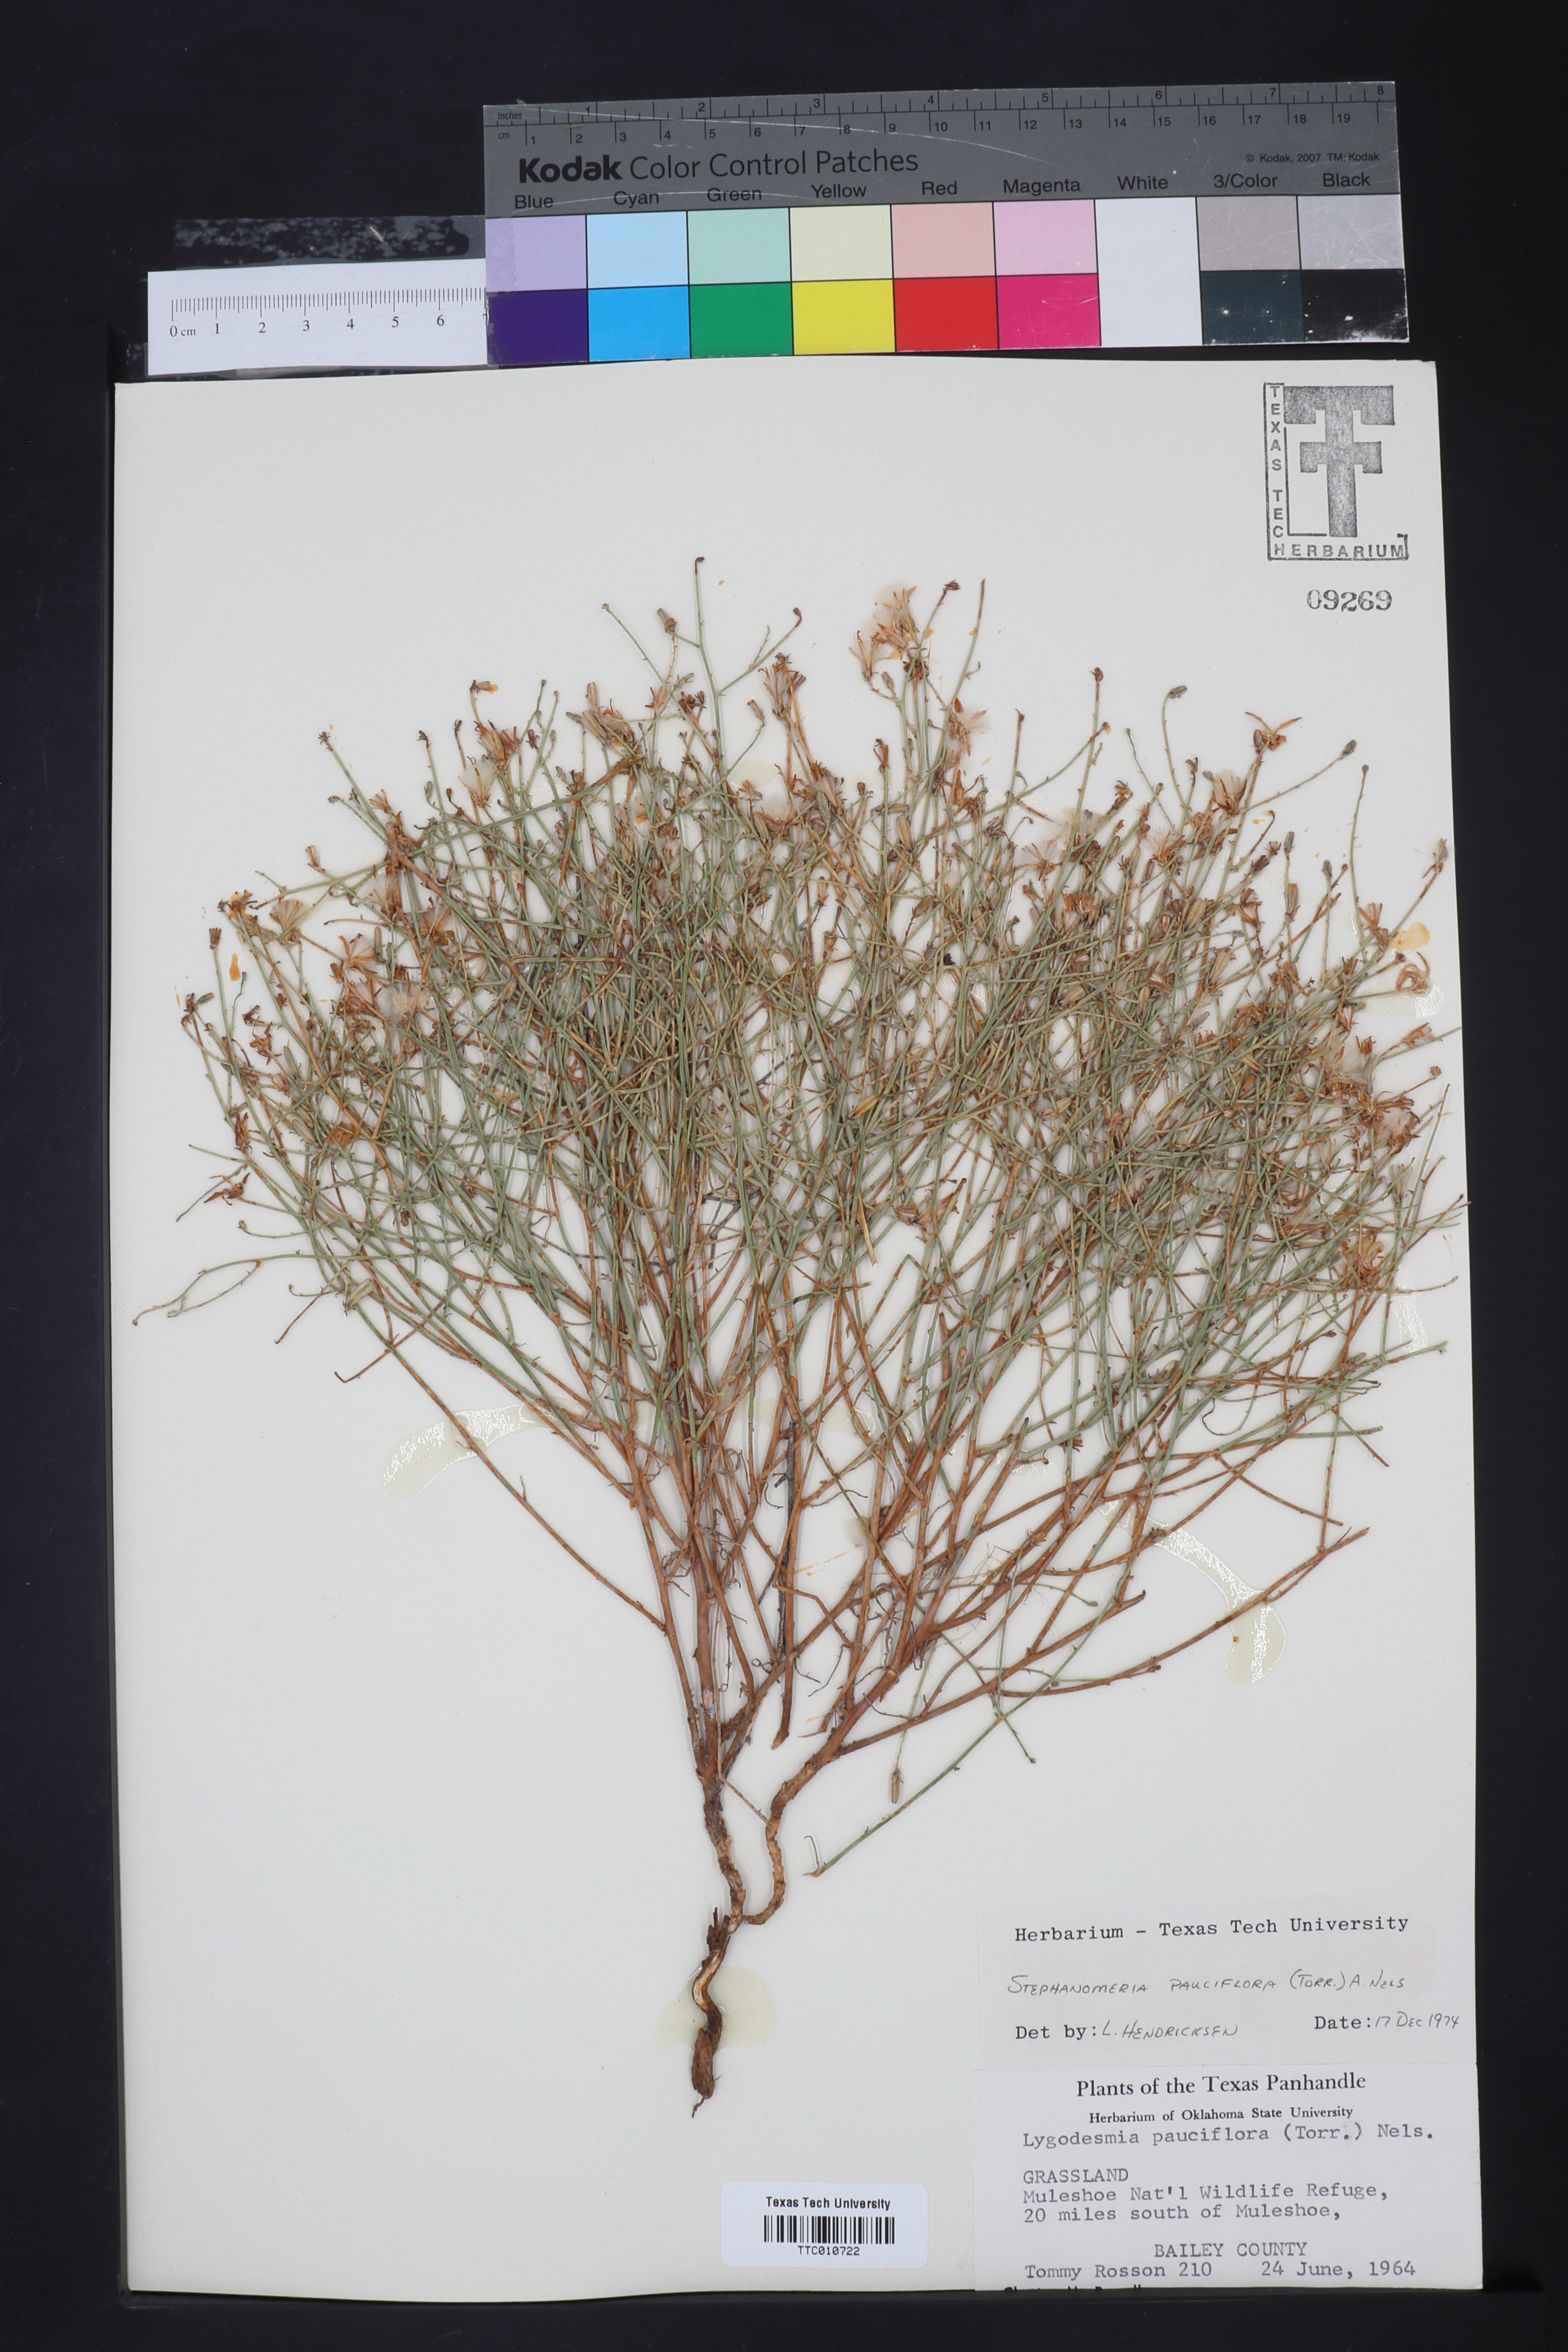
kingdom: Plantae
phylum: Tracheophyta
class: Magnoliopsida
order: Asterales
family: Asteraceae
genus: Stephanomeria
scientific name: Stephanomeria pauciflora
